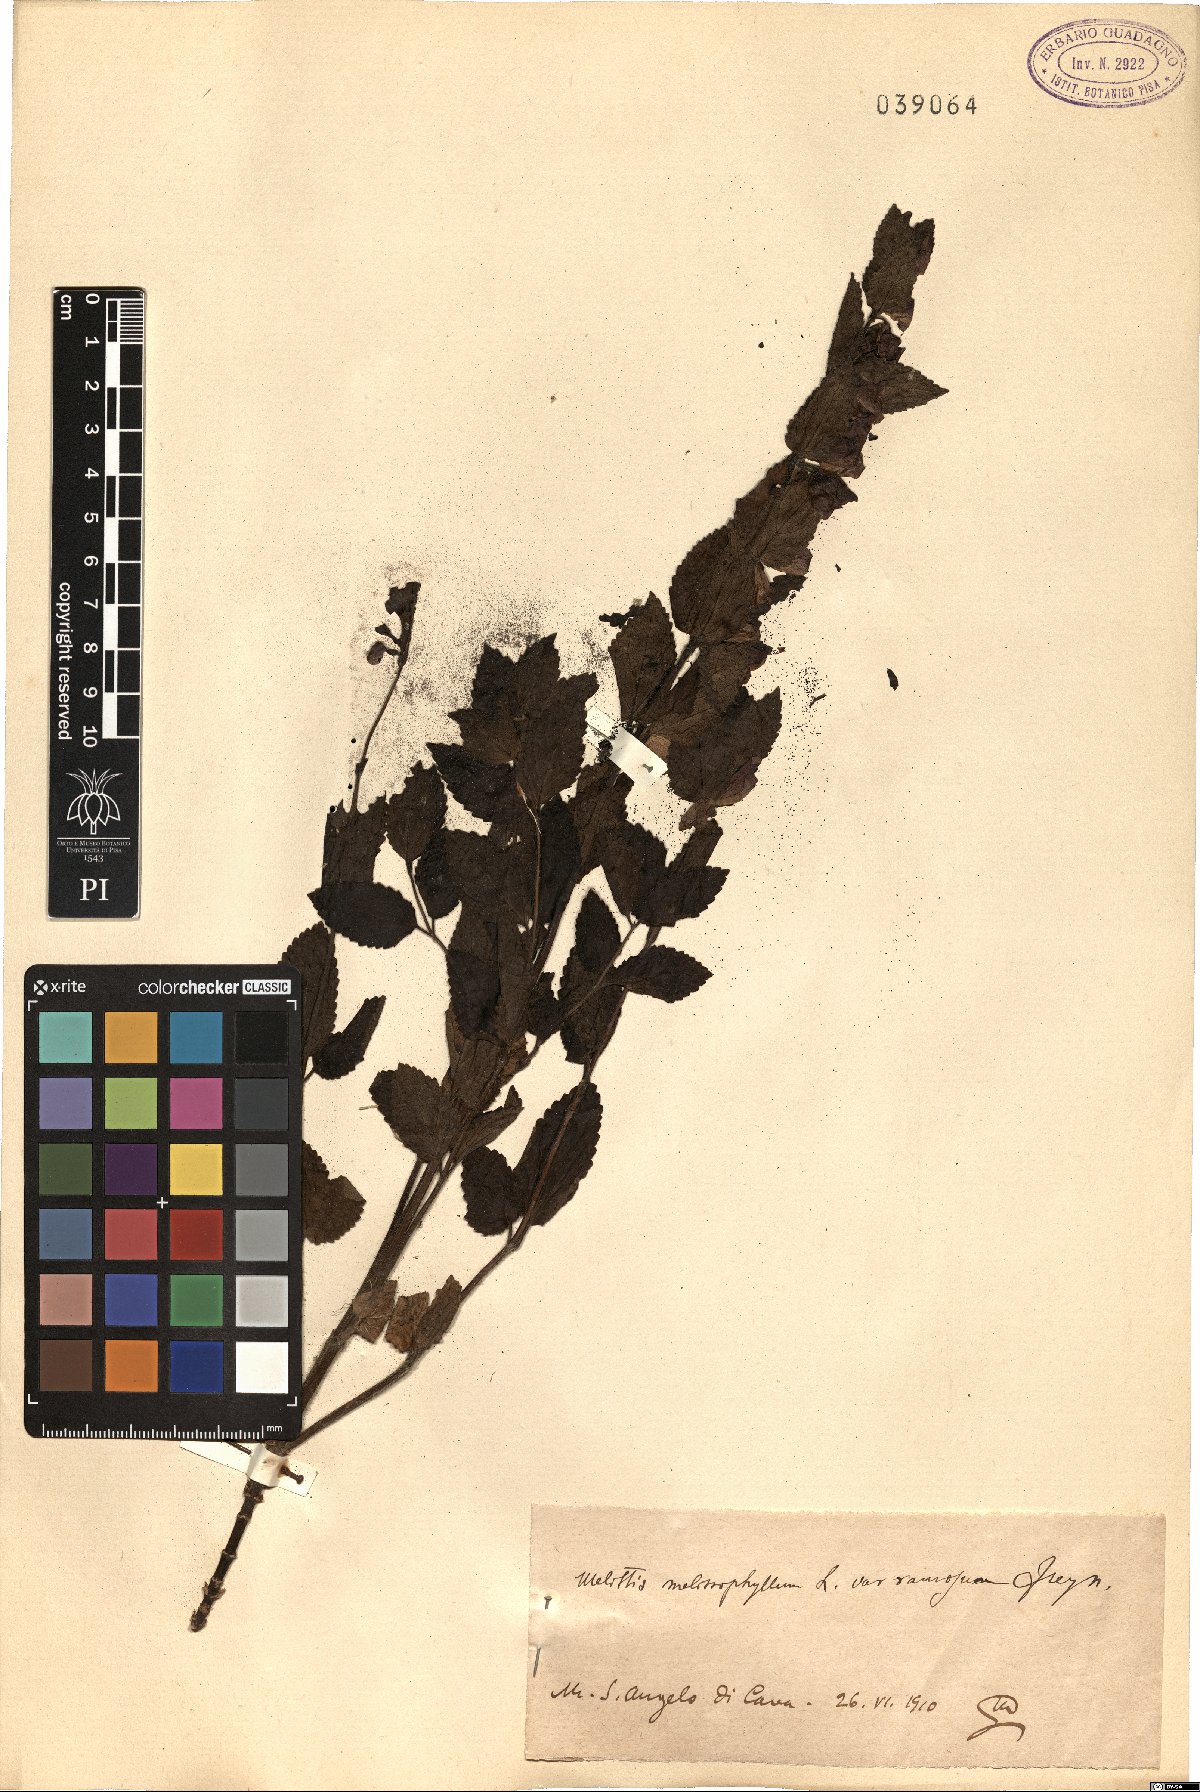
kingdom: Plantae
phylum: Tracheophyta
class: Magnoliopsida
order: Lamiales
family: Lamiaceae
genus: Melittis
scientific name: Melittis melissophyllum
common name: Bastard balm
